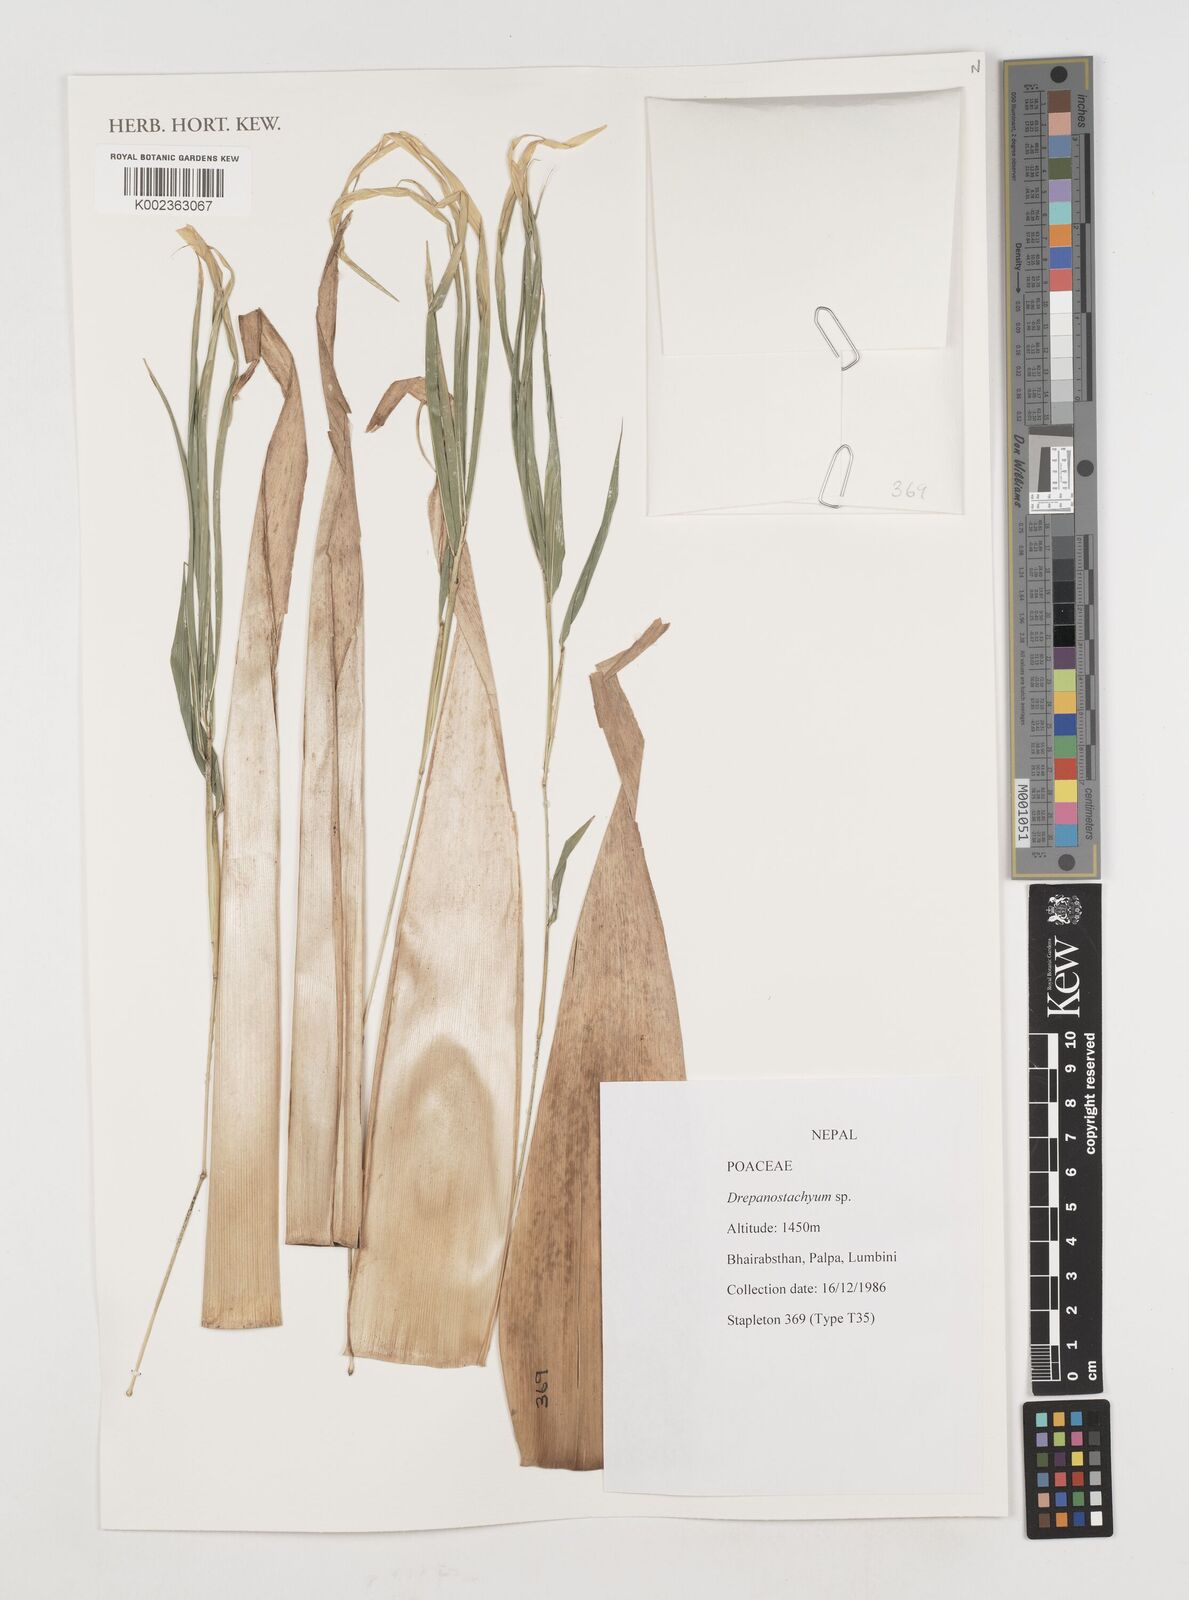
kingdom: Plantae
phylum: Tracheophyta
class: Liliopsida
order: Poales
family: Poaceae
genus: Drepanostachyum
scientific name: Drepanostachyum
